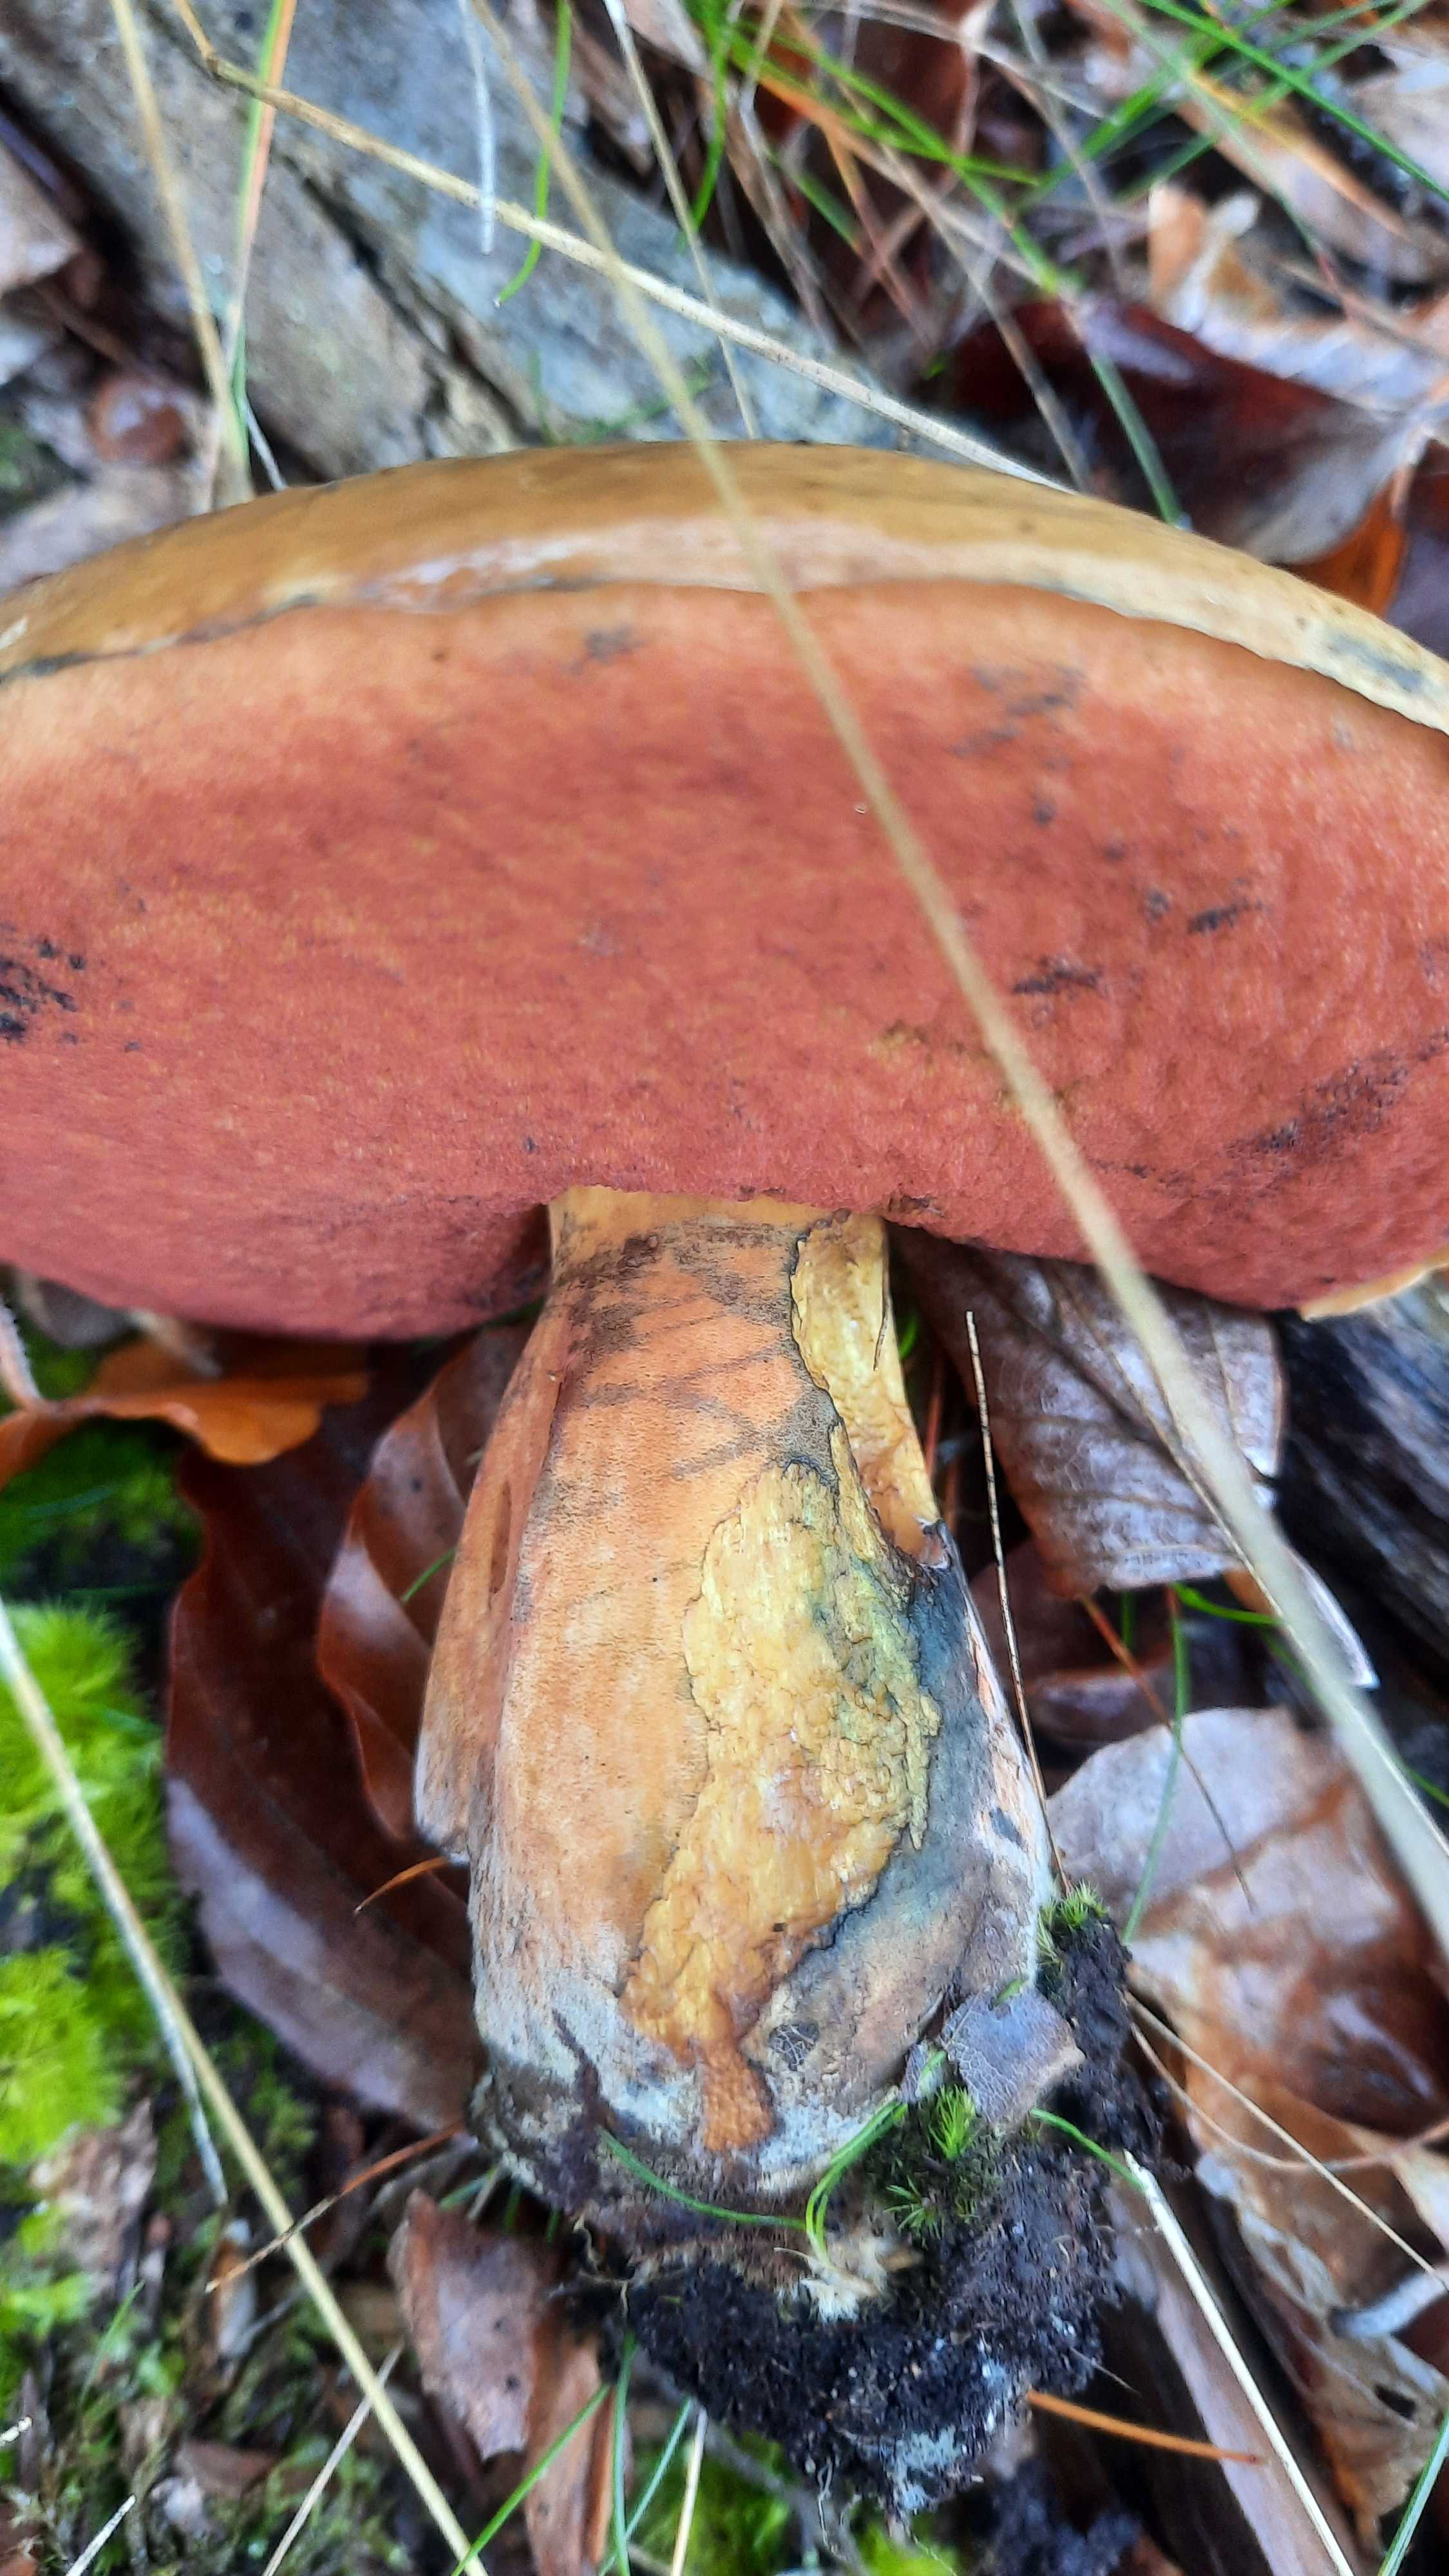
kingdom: Fungi
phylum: Basidiomycota
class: Agaricomycetes
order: Boletales
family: Boletaceae
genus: Neoboletus
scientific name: Neoboletus erythropus
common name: punktstokket indigorørhat
